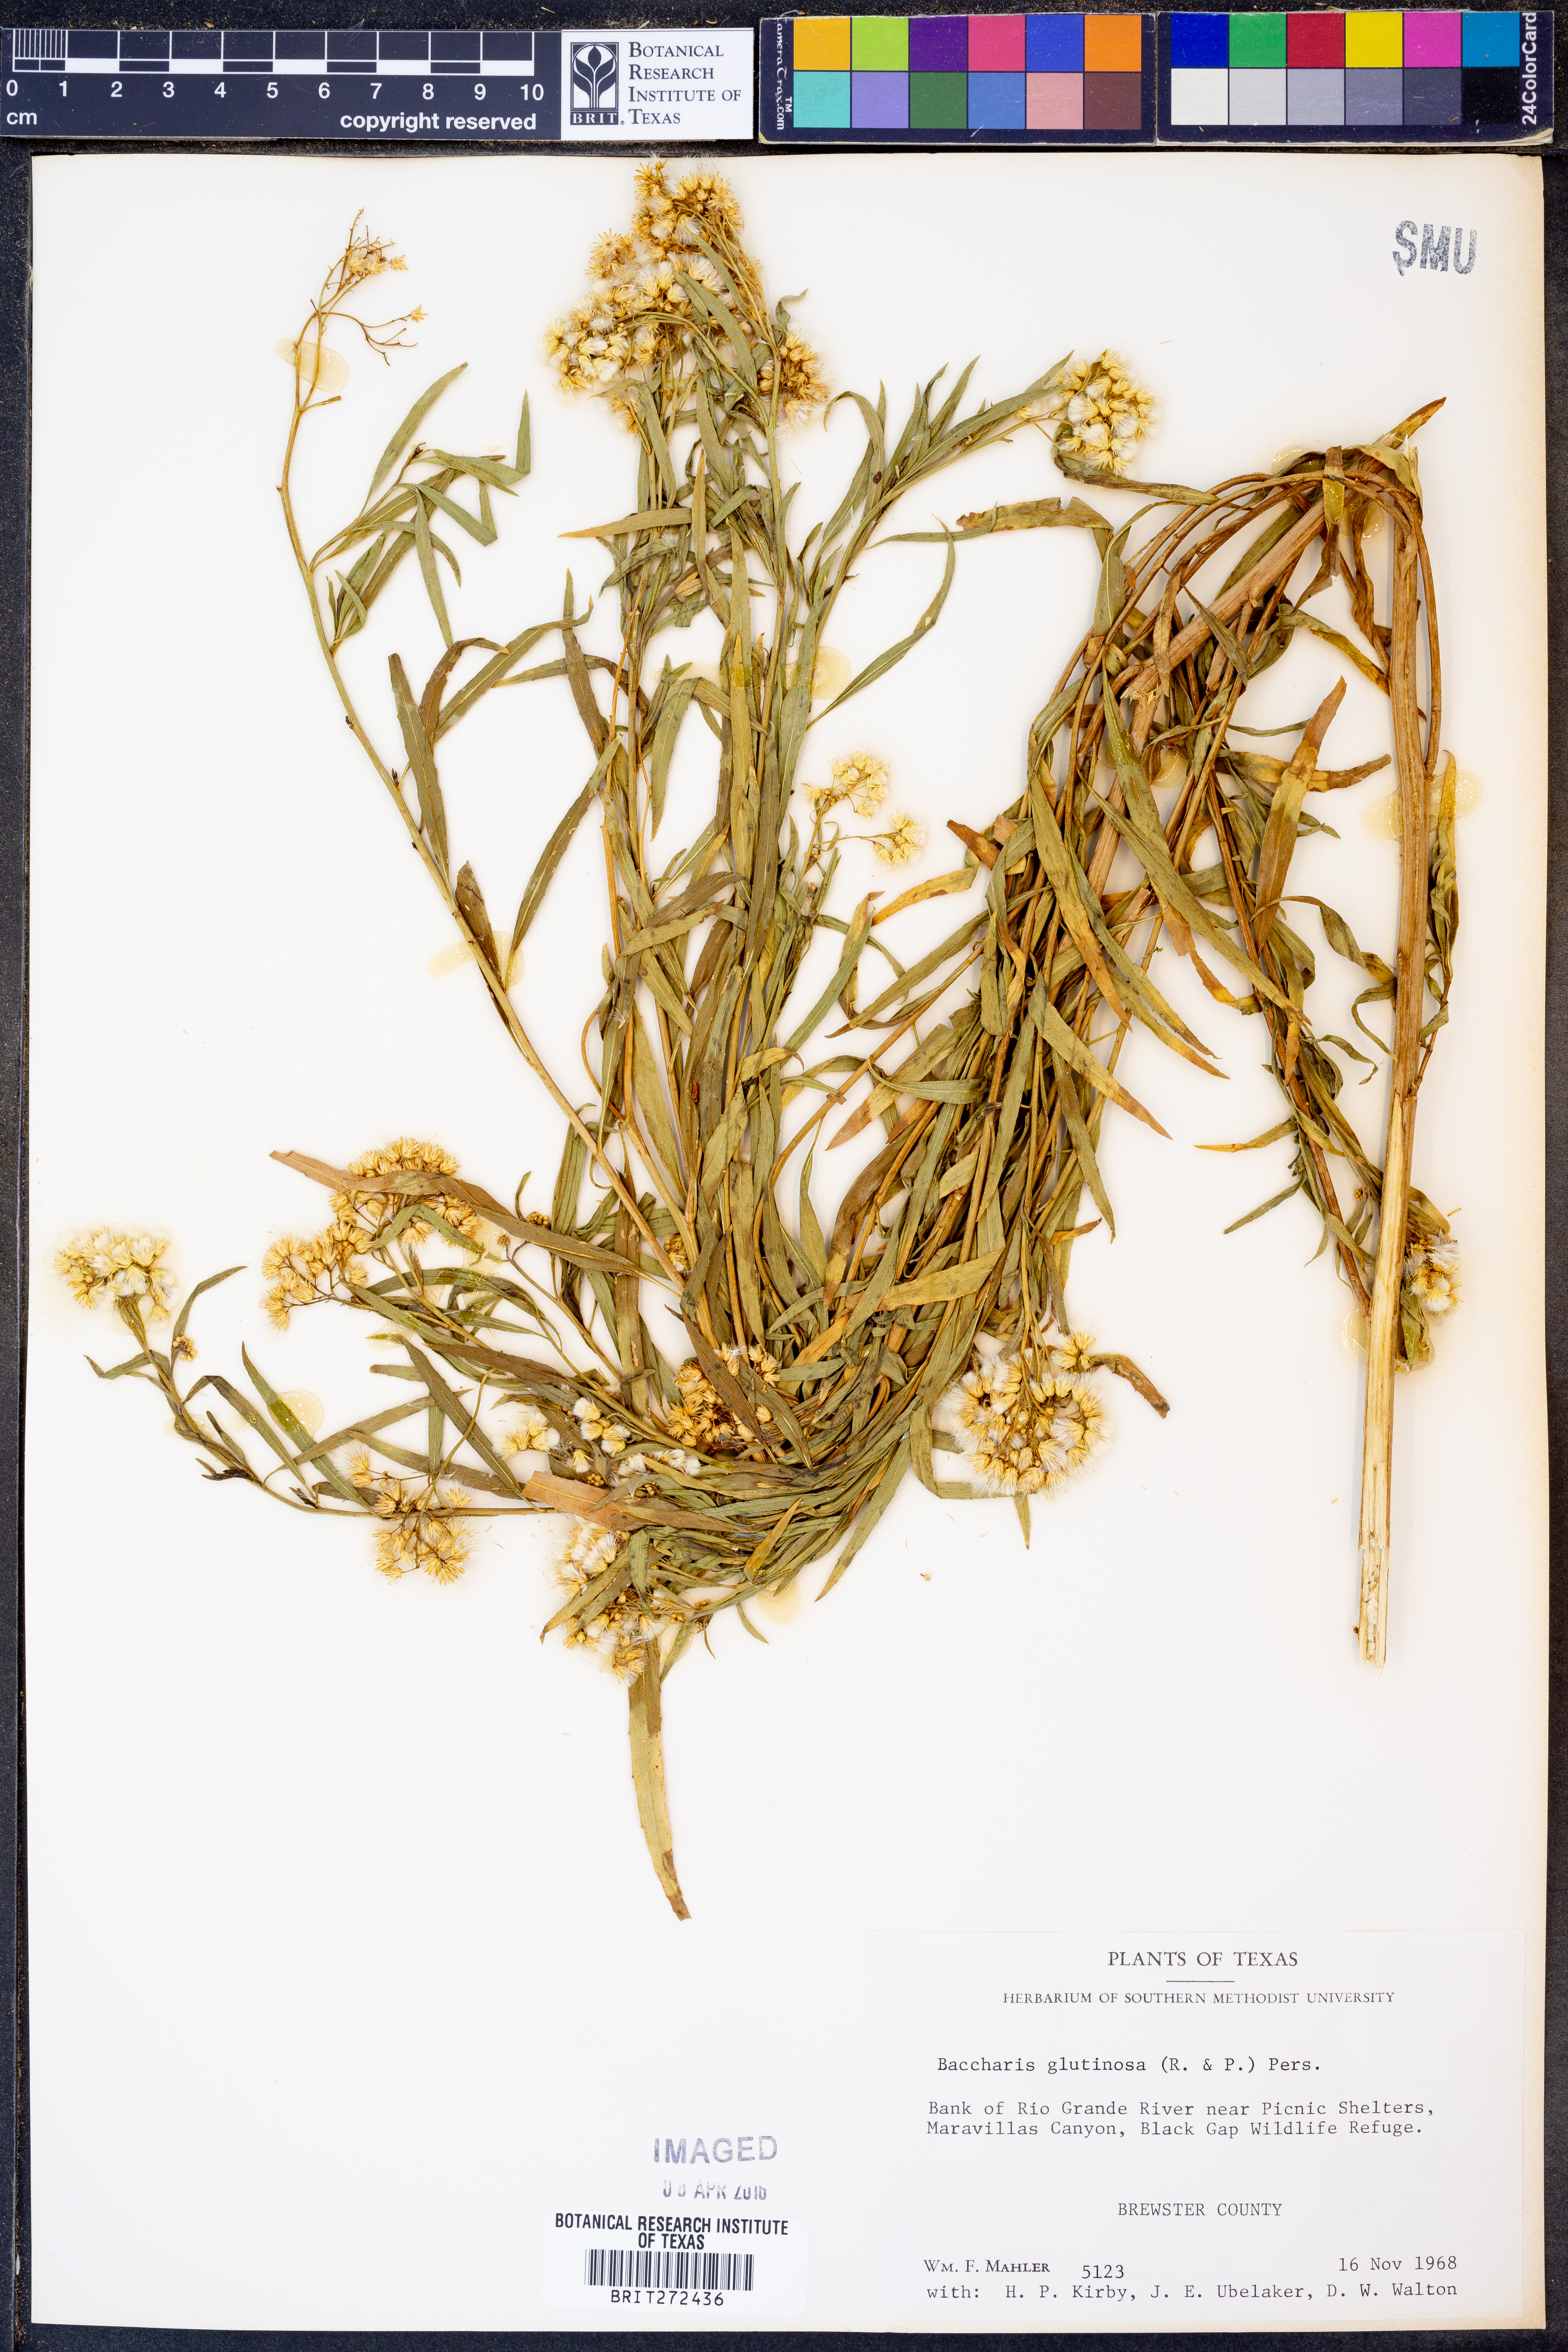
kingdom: Plantae
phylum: Tracheophyta
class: Magnoliopsida
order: Asterales
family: Asteraceae
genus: Baccharis
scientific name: Baccharis glutinosa
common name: Saltmarsh baccharis
